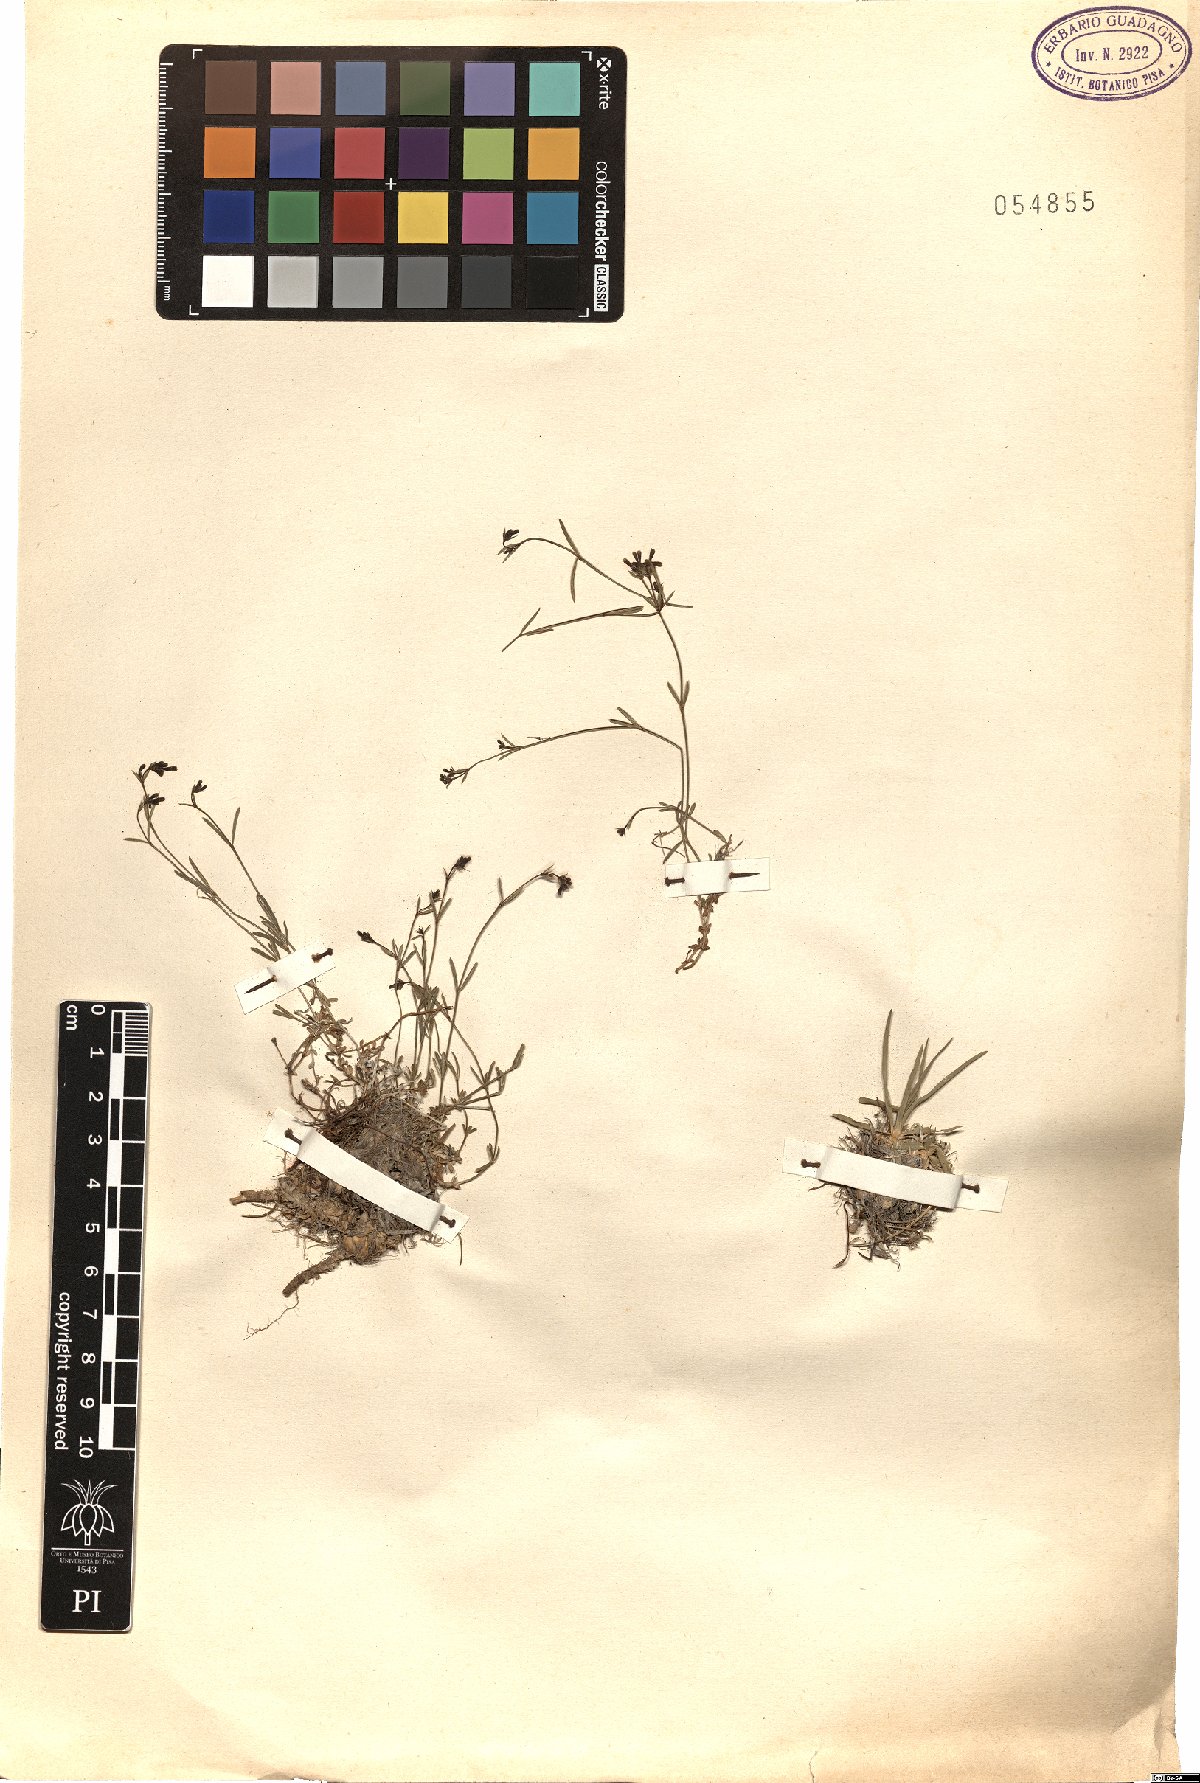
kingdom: Plantae
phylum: Tracheophyta
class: Magnoliopsida
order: Gentianales
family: Rubiaceae
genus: Asperula
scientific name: Asperula
